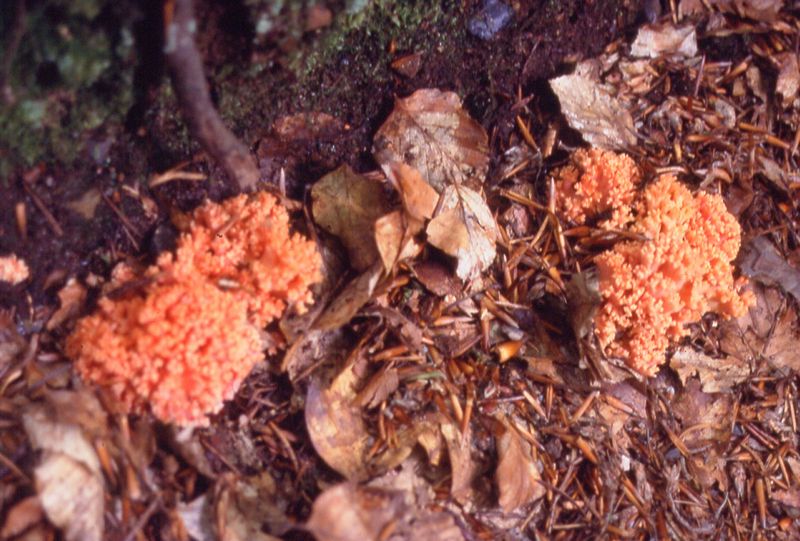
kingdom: Fungi
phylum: Basidiomycota
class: Agaricomycetes
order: Gomphales
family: Gomphaceae
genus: Ramaria
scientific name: Ramaria fagetorum
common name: abrikos-koralsvamp
